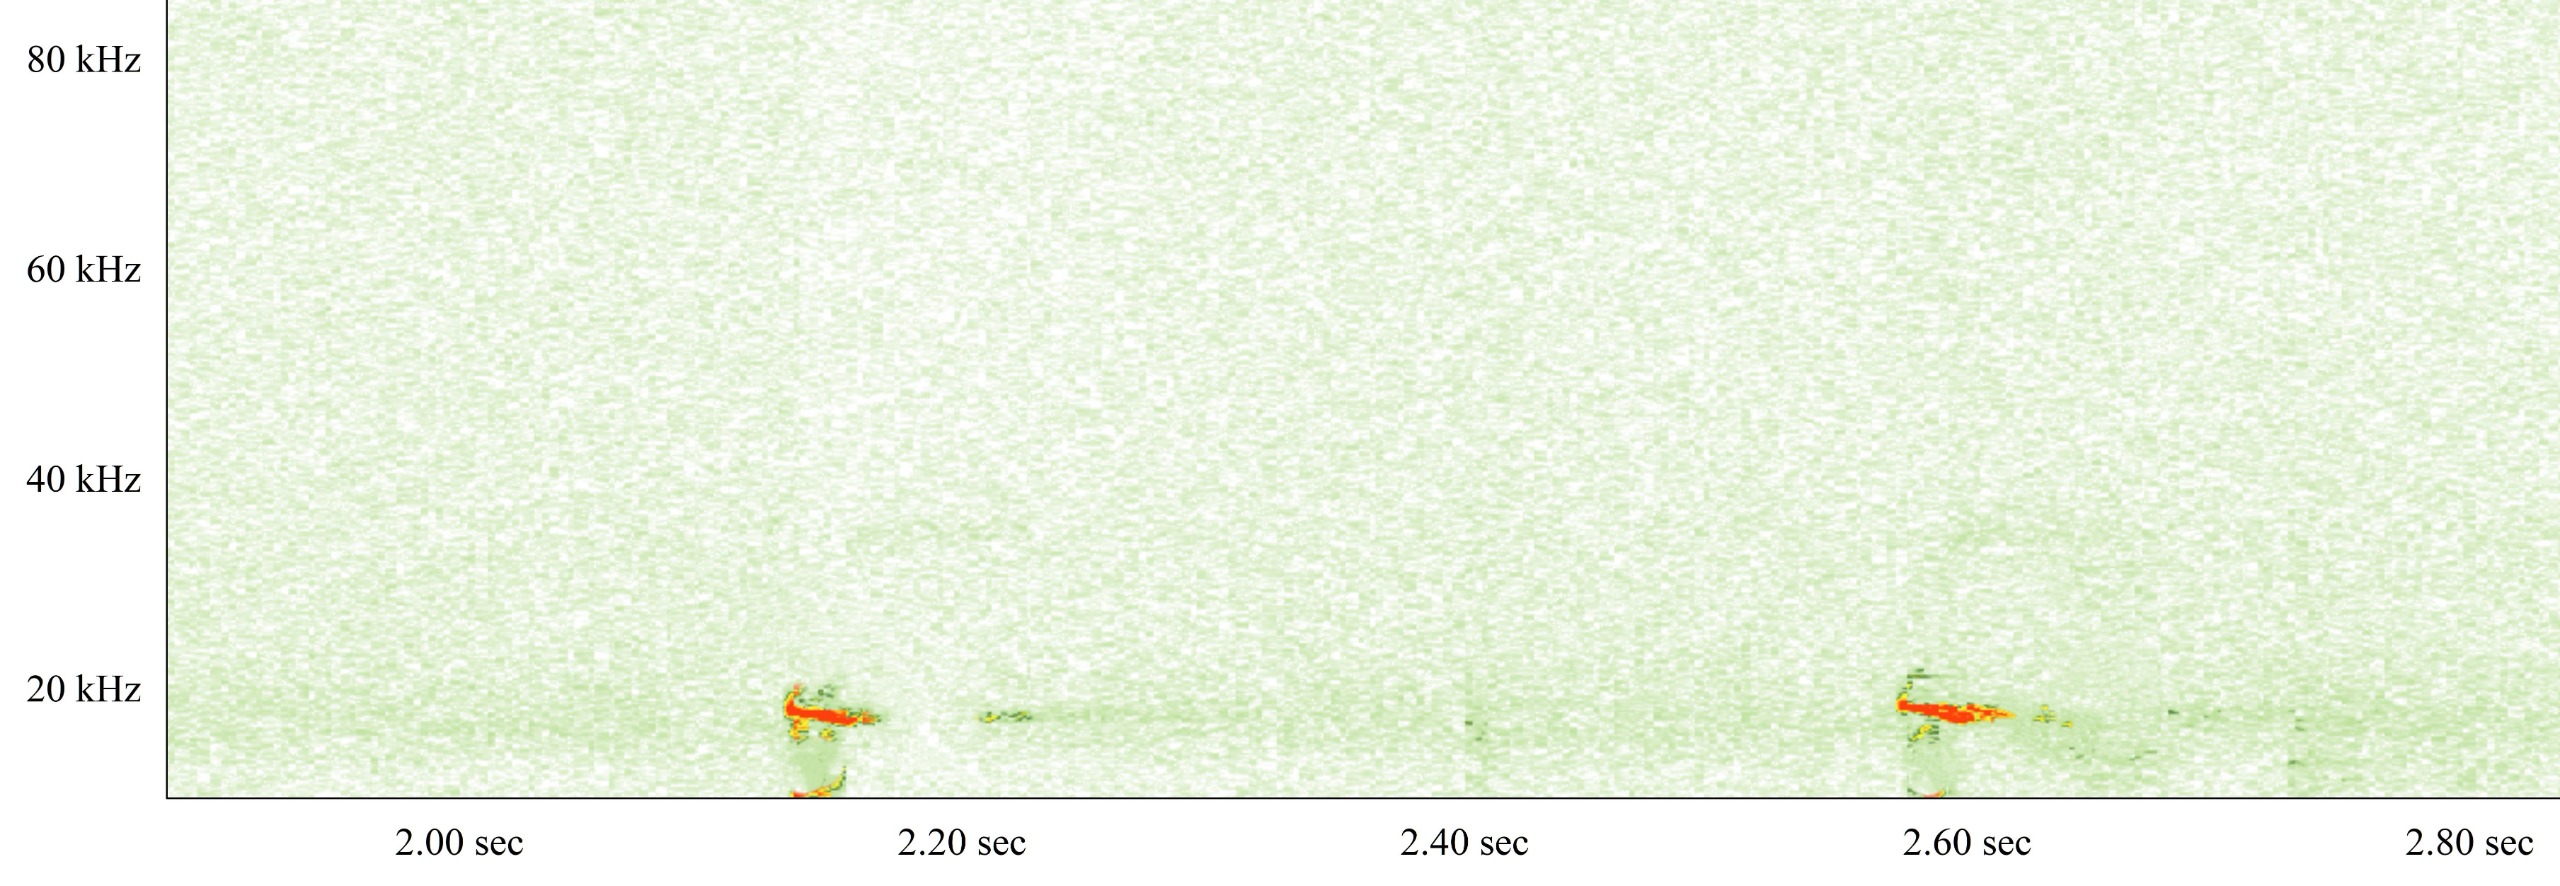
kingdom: Animalia
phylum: Chordata
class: Mammalia
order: Chiroptera
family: Vespertilionidae
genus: Nyctalus
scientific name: Nyctalus noctula
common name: Brunflagermus
